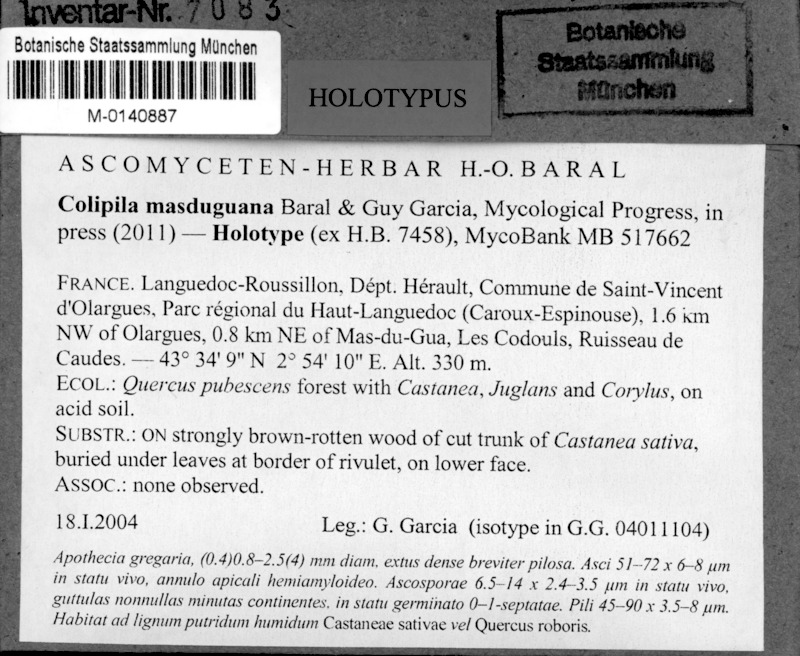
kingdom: Fungi
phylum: Ascomycota
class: Leotiomycetes
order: Helotiales
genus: Colipila
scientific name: Colipila masduguana
